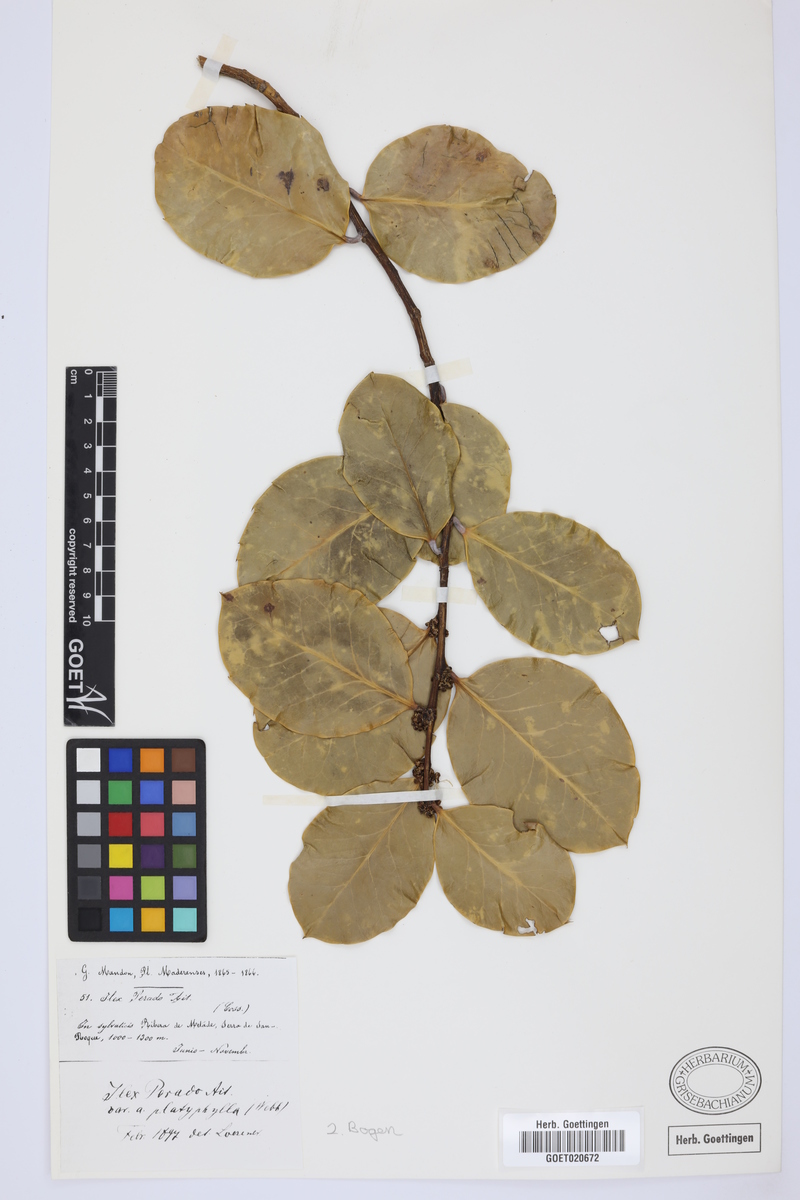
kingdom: Plantae
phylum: Tracheophyta
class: Magnoliopsida
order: Aquifoliales
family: Aquifoliaceae
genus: Ilex
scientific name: Ilex perado
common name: Madeira holly
